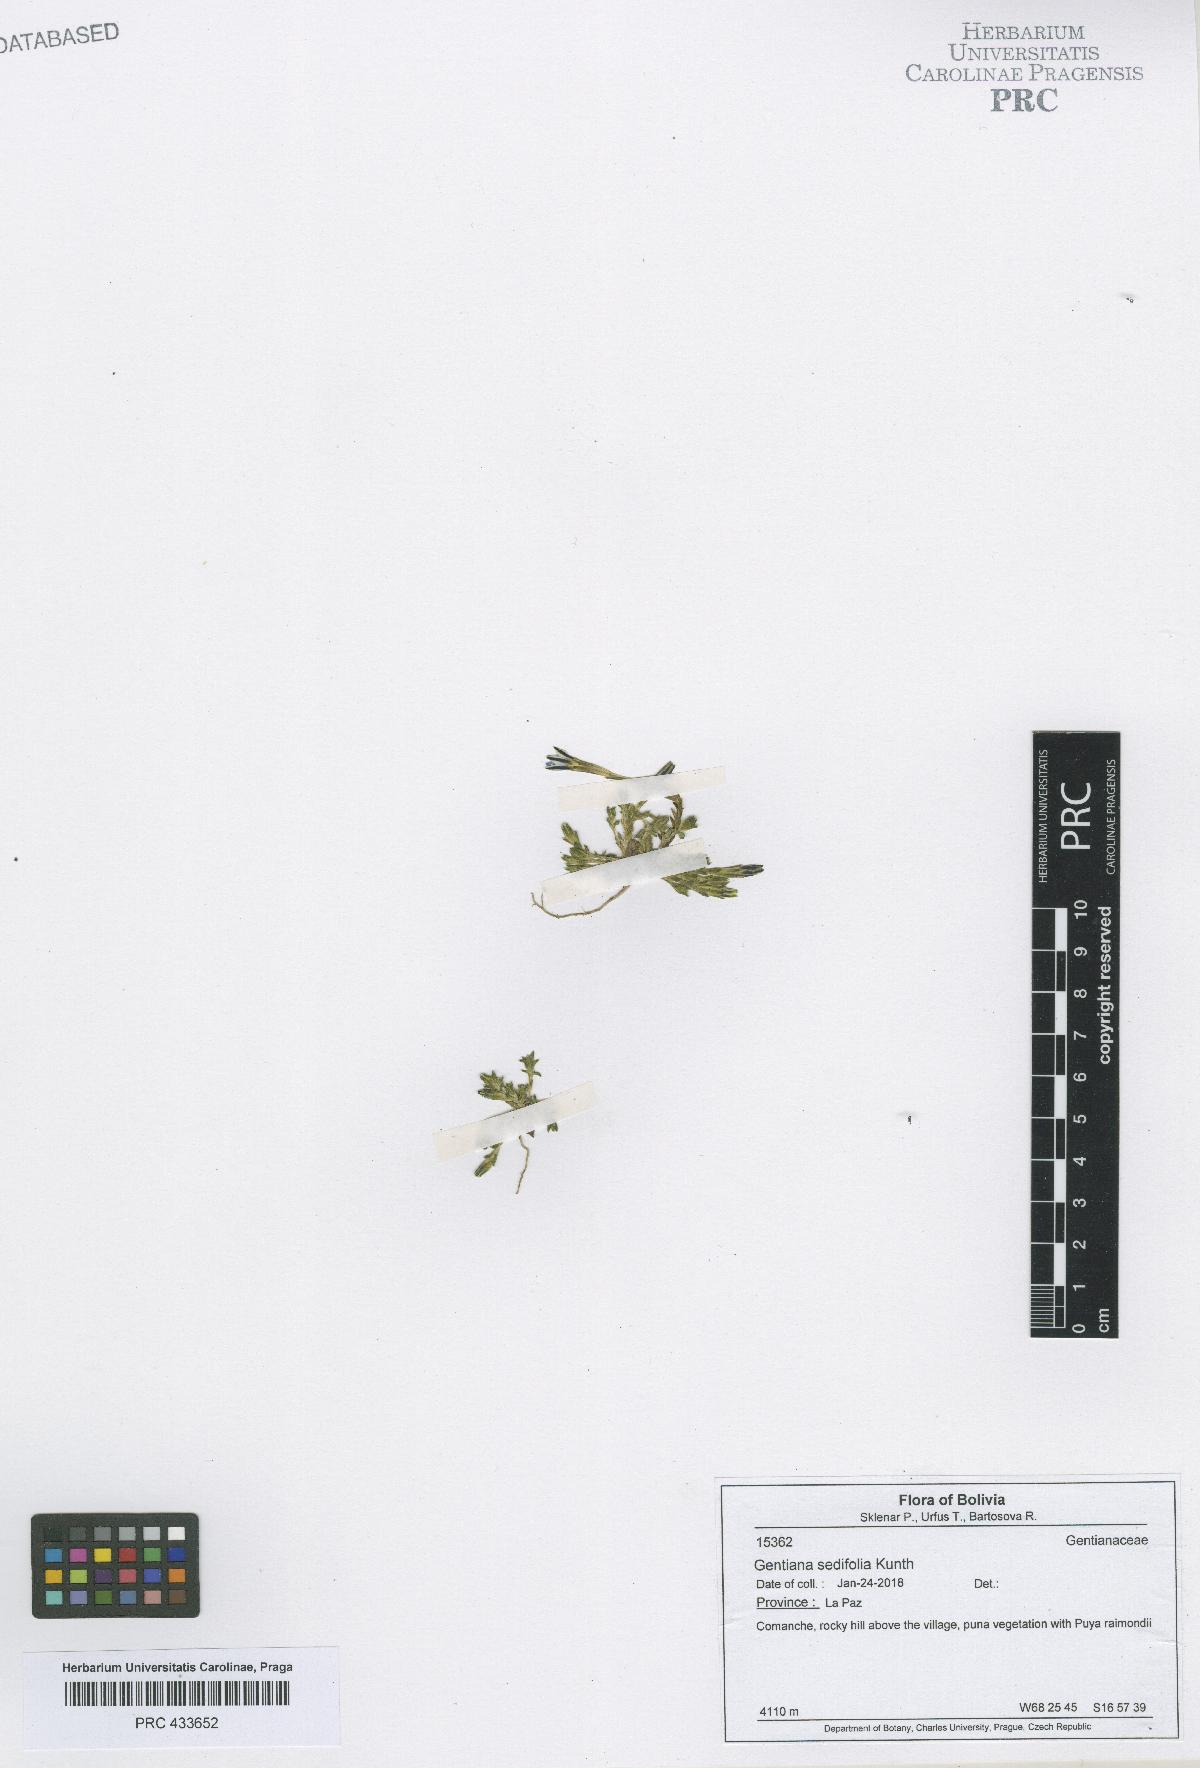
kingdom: Plantae
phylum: Tracheophyta
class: Magnoliopsida
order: Gentianales
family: Gentianaceae
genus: Gentiana
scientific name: Gentiana sedifolia
